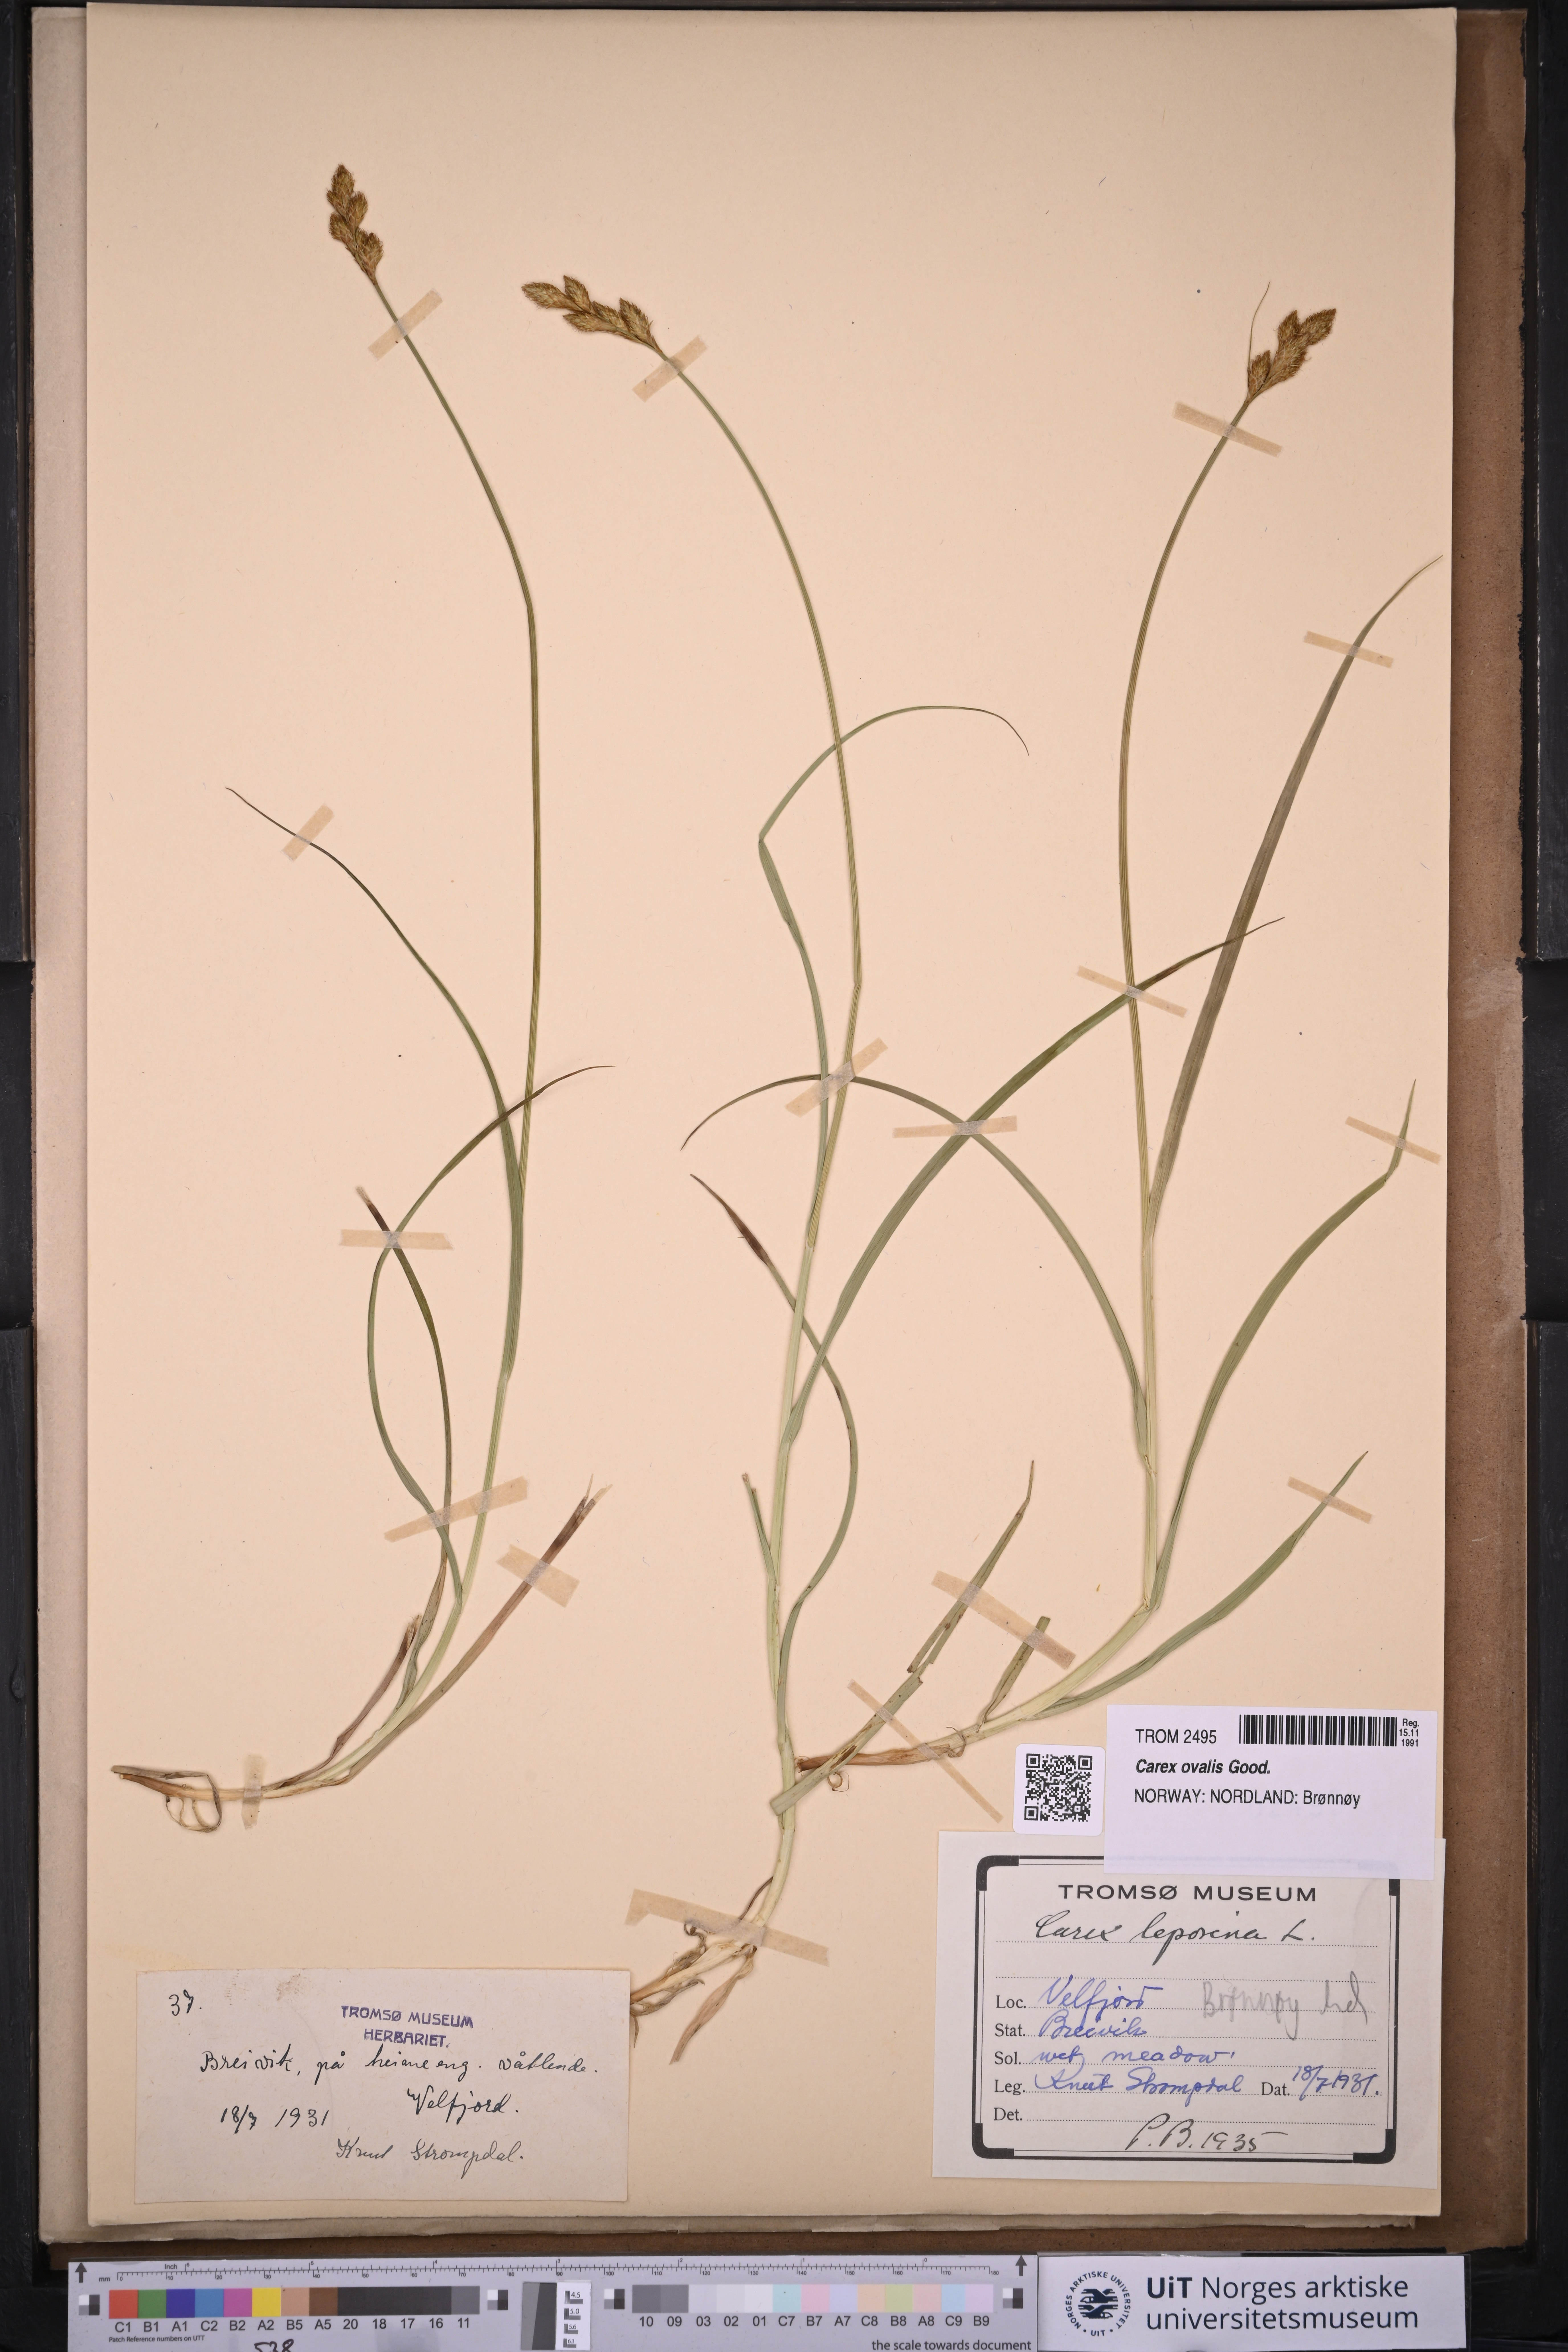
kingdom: Plantae
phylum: Tracheophyta
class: Liliopsida
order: Poales
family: Cyperaceae
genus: Carex
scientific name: Carex leporina
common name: Oval sedge
